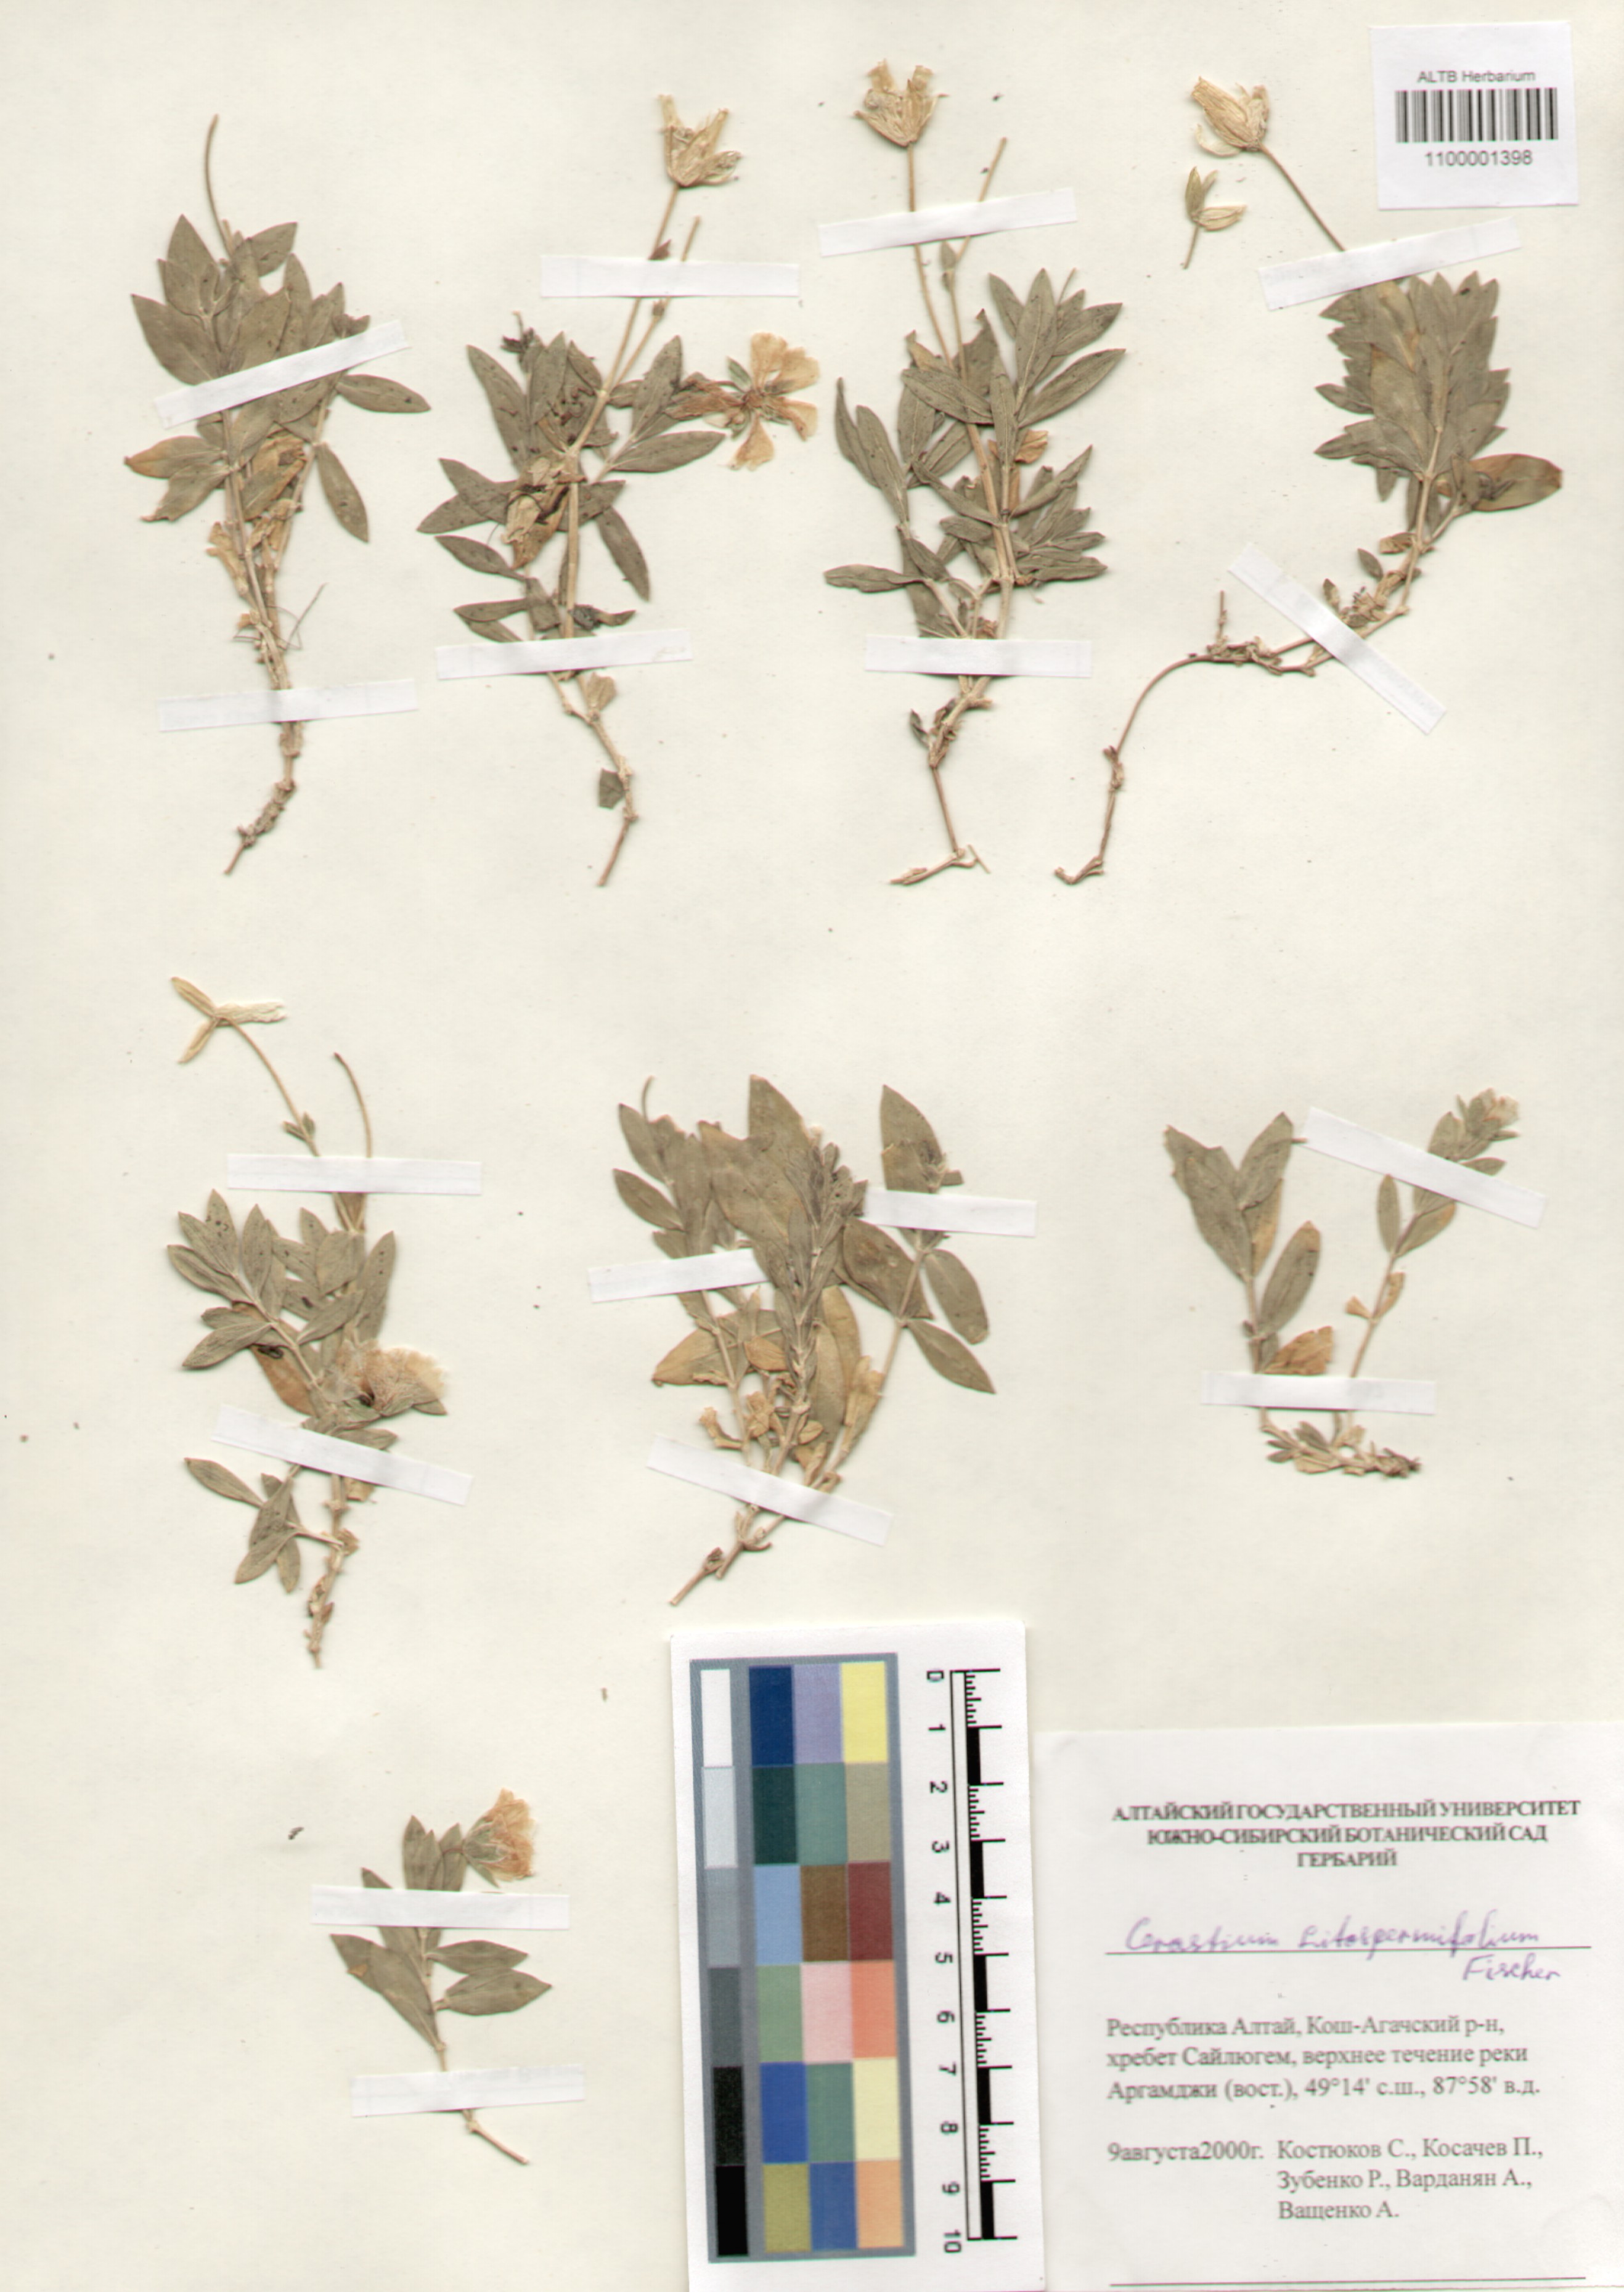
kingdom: Plantae
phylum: Tracheophyta
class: Magnoliopsida
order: Caryophyllales
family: Caryophyllaceae
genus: Cerastium
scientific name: Cerastium lithospermifolium
